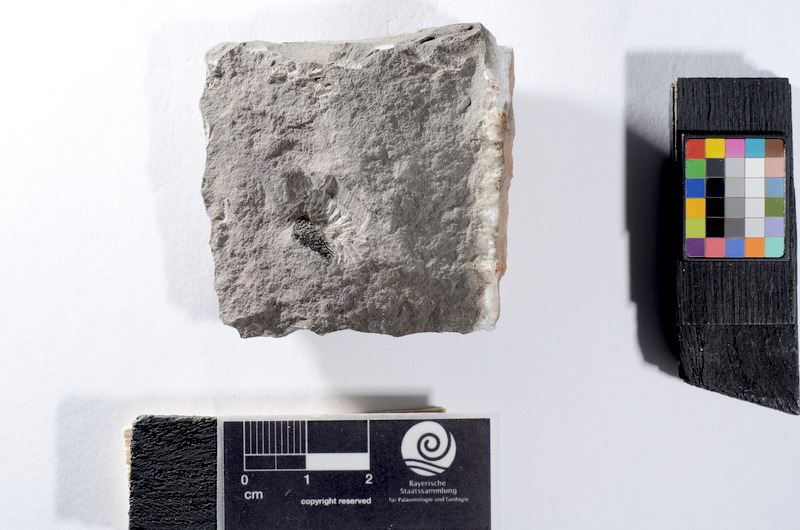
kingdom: Animalia
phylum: Chordata
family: Dapediidae
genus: Dapedium
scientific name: Dapedium
